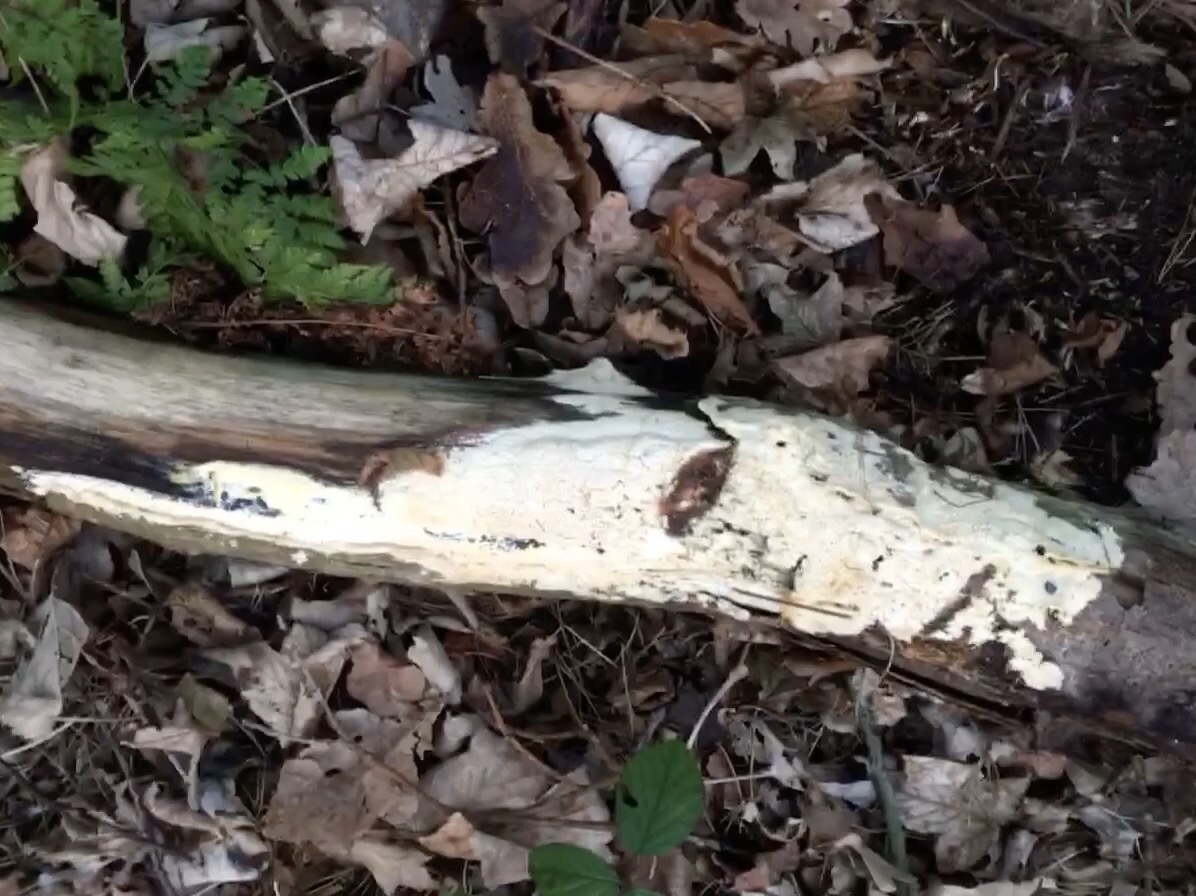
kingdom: Fungi
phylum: Basidiomycota
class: Agaricomycetes
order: Polyporales
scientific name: Polyporales
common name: poresvampordenen
